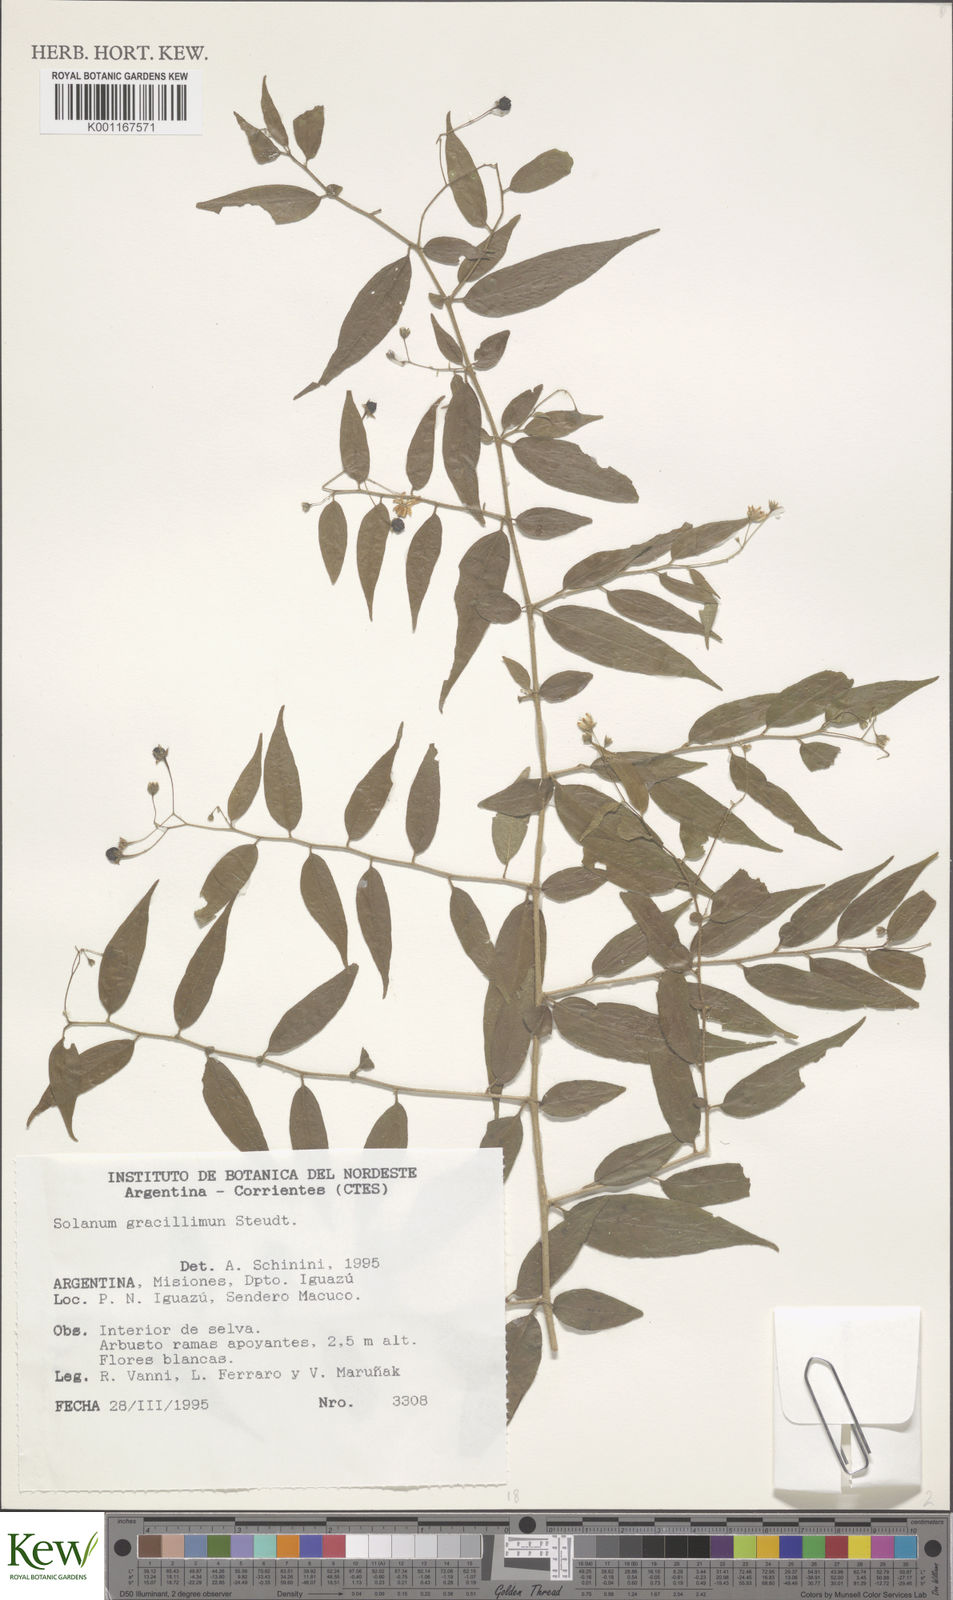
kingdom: Plantae
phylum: Tracheophyta
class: Magnoliopsida
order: Solanales
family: Solanaceae
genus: Solanum
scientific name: Solanum hirtellum
